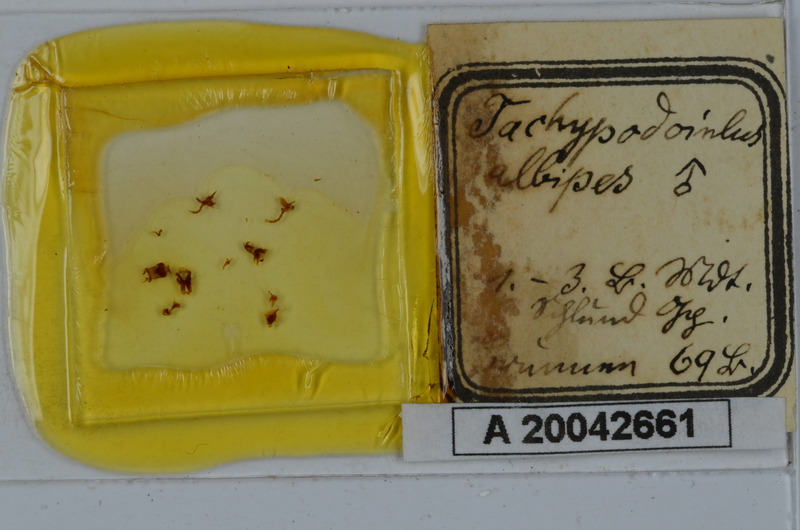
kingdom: Animalia
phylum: Arthropoda
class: Diplopoda
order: Julida
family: Julidae
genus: Tachypodoiulus
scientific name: Tachypodoiulus niger
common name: White-legged snake millipede
